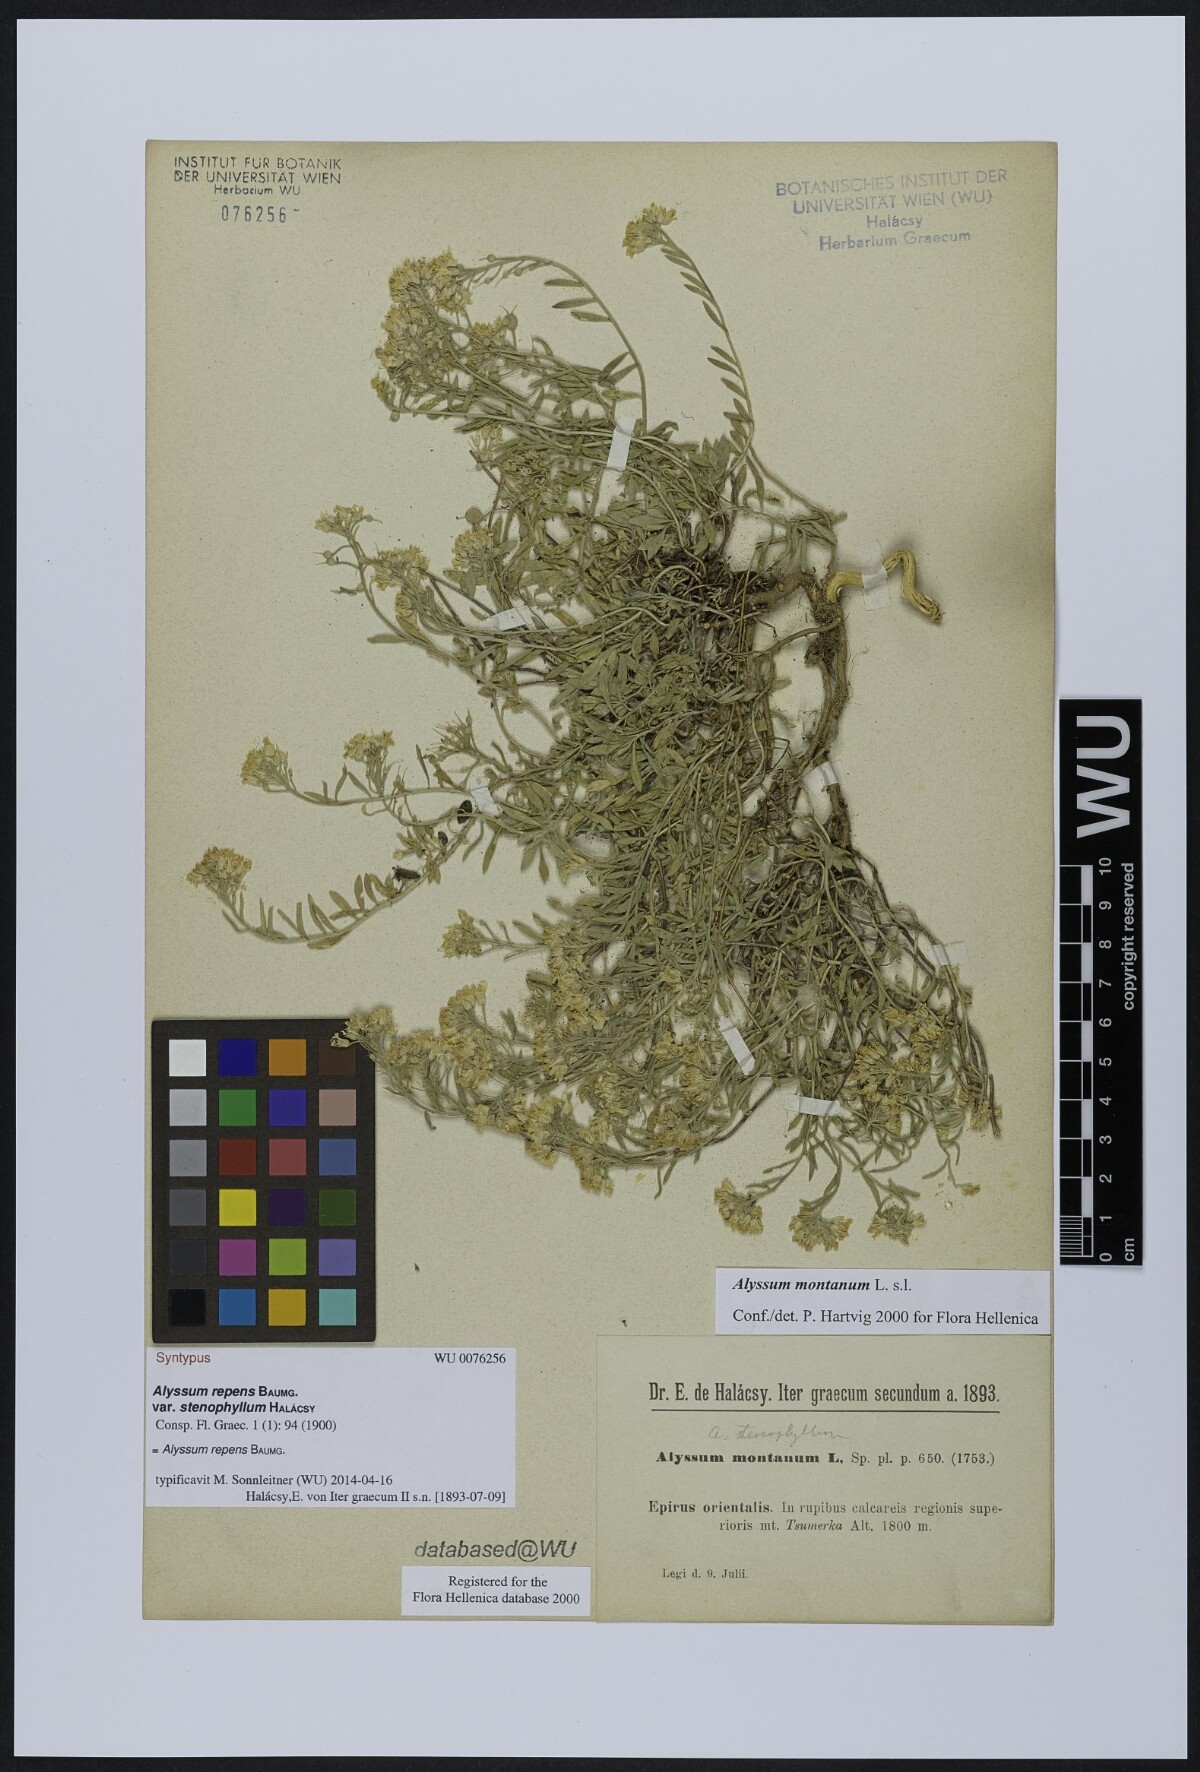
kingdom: Plantae
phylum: Tracheophyta
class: Magnoliopsida
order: Brassicales
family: Brassicaceae
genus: Alyssum
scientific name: Alyssum trichostachyum
